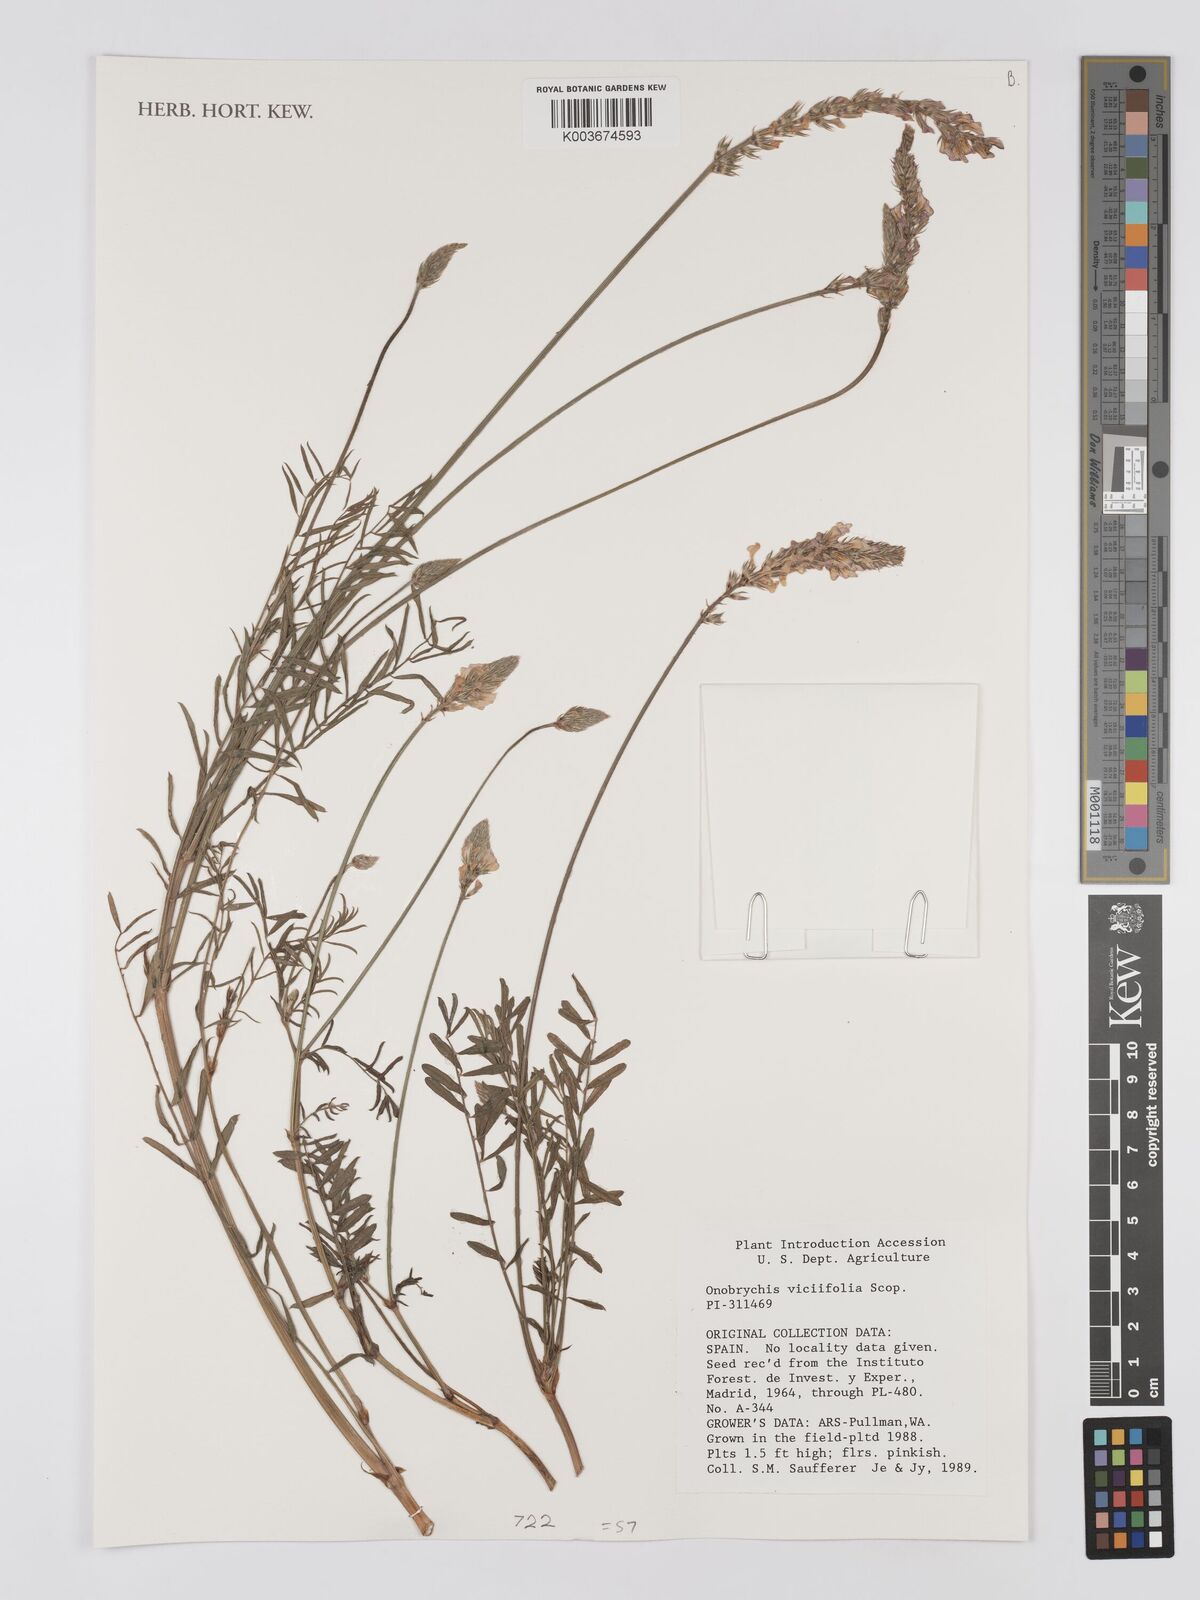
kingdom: Plantae
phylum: Tracheophyta
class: Magnoliopsida
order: Fabales
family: Fabaceae
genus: Onobrychis
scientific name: Onobrychis viciifolia
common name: Sainfoin
